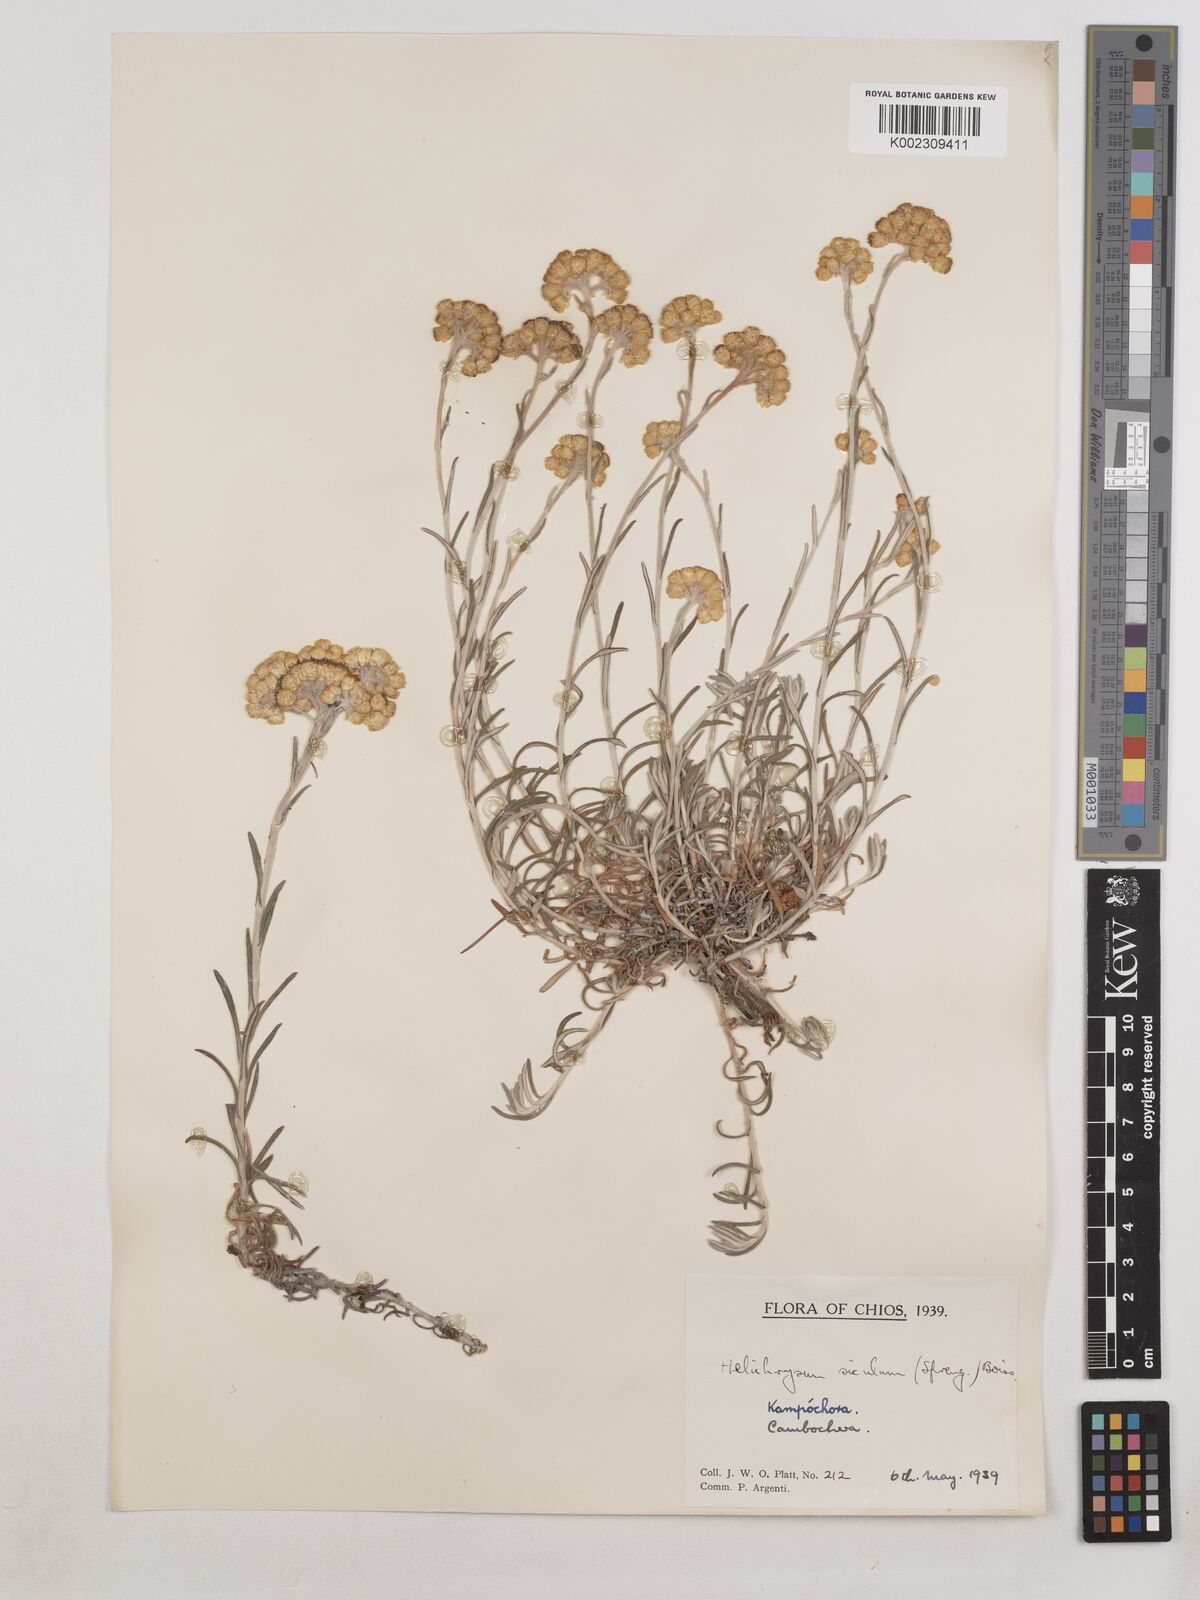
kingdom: Plantae
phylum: Tracheophyta
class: Magnoliopsida
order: Asterales
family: Asteraceae
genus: Helichrysum
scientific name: Helichrysum stoechas
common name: Goldilocks
